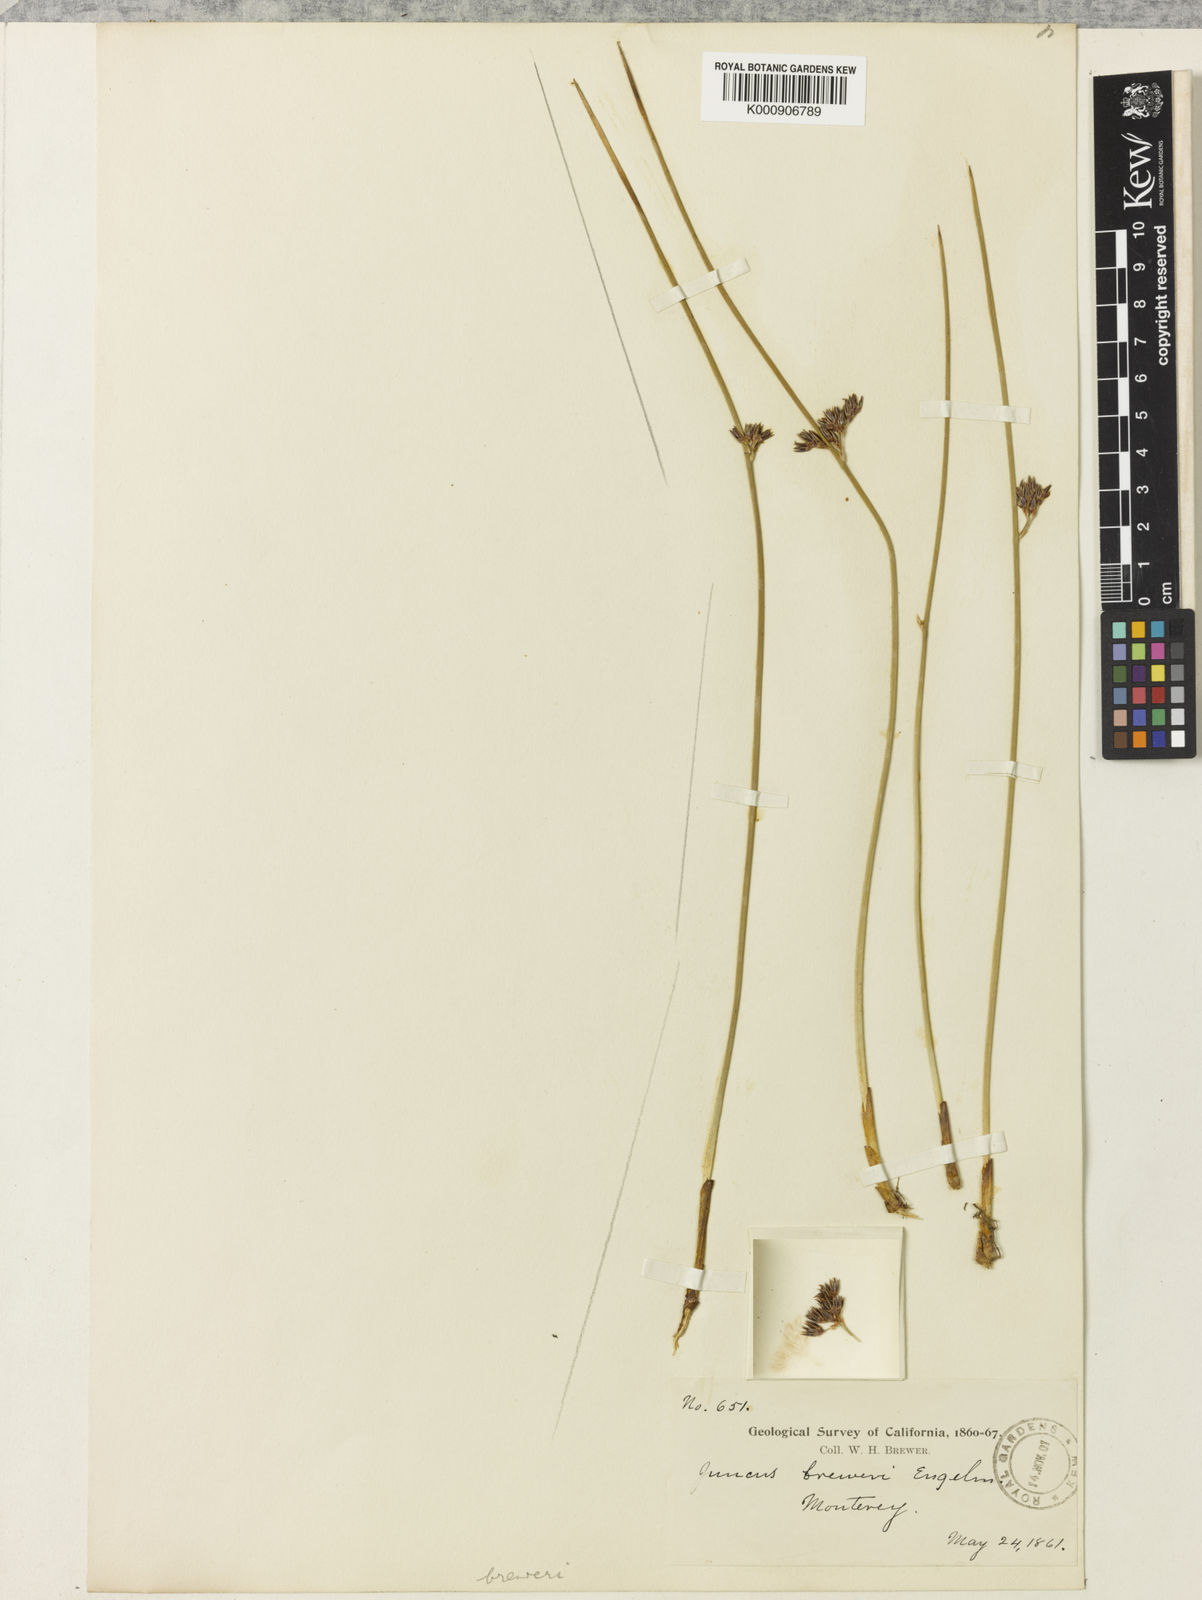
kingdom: Plantae
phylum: Tracheophyta
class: Liliopsida
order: Poales
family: Juncaceae
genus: Juncus
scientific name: Juncus breweri
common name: Brewer's rush
